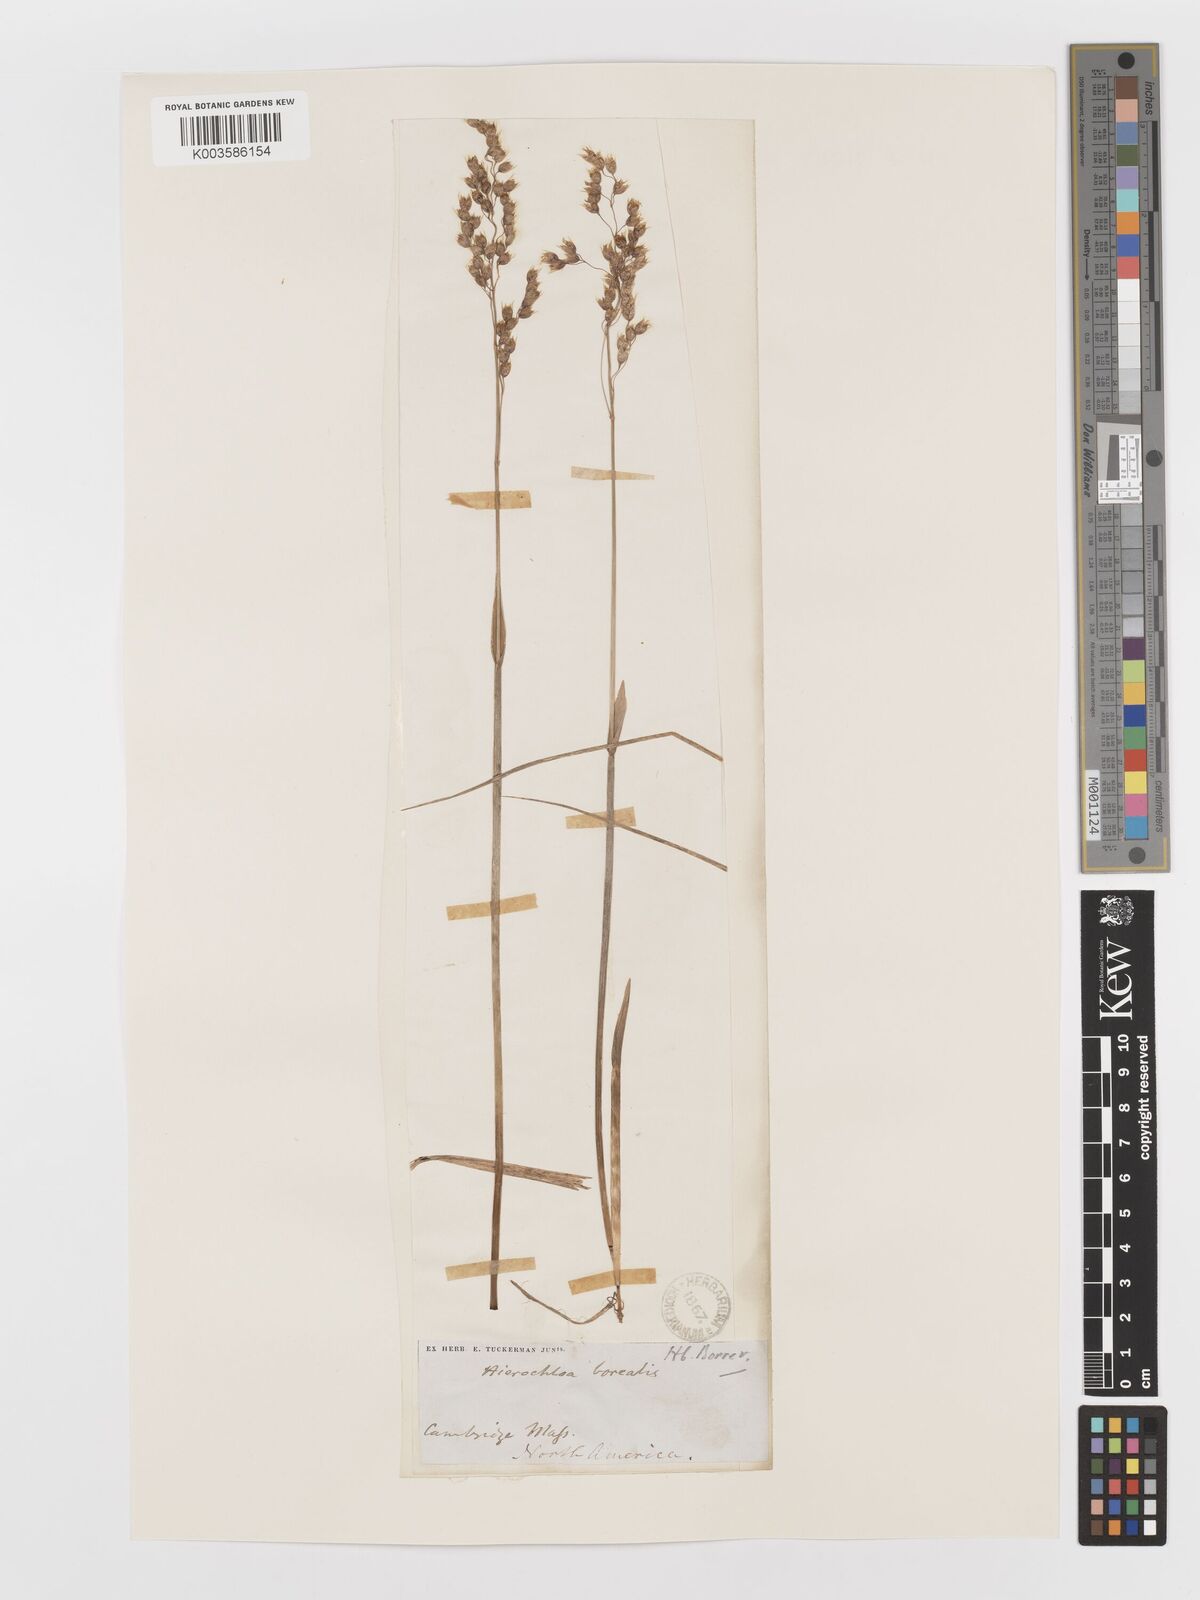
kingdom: Plantae
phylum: Tracheophyta
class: Liliopsida
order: Poales
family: Poaceae
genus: Anthoxanthum
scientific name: Anthoxanthum nitens
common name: Holy grass
